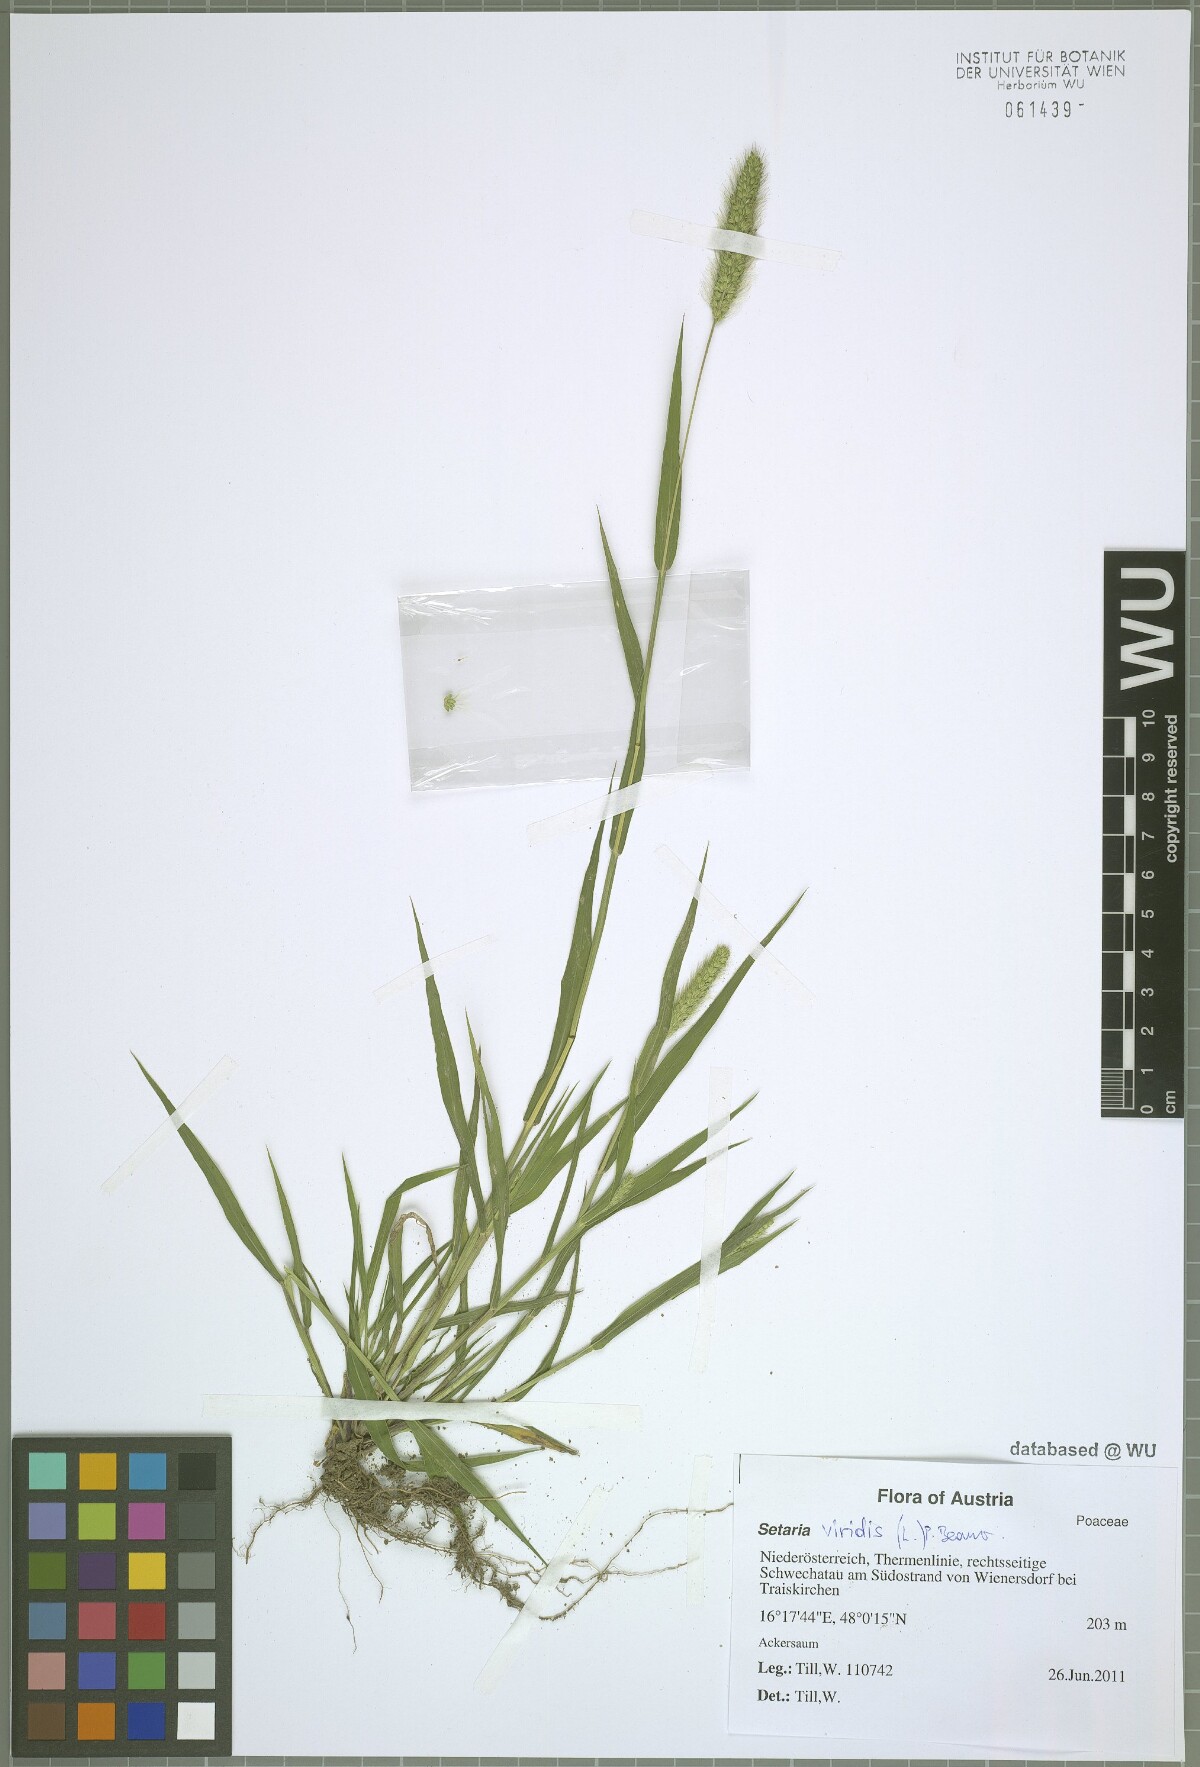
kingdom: Plantae
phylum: Tracheophyta
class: Liliopsida
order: Poales
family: Poaceae
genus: Setaria
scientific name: Setaria viridis
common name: Green bristlegrass
